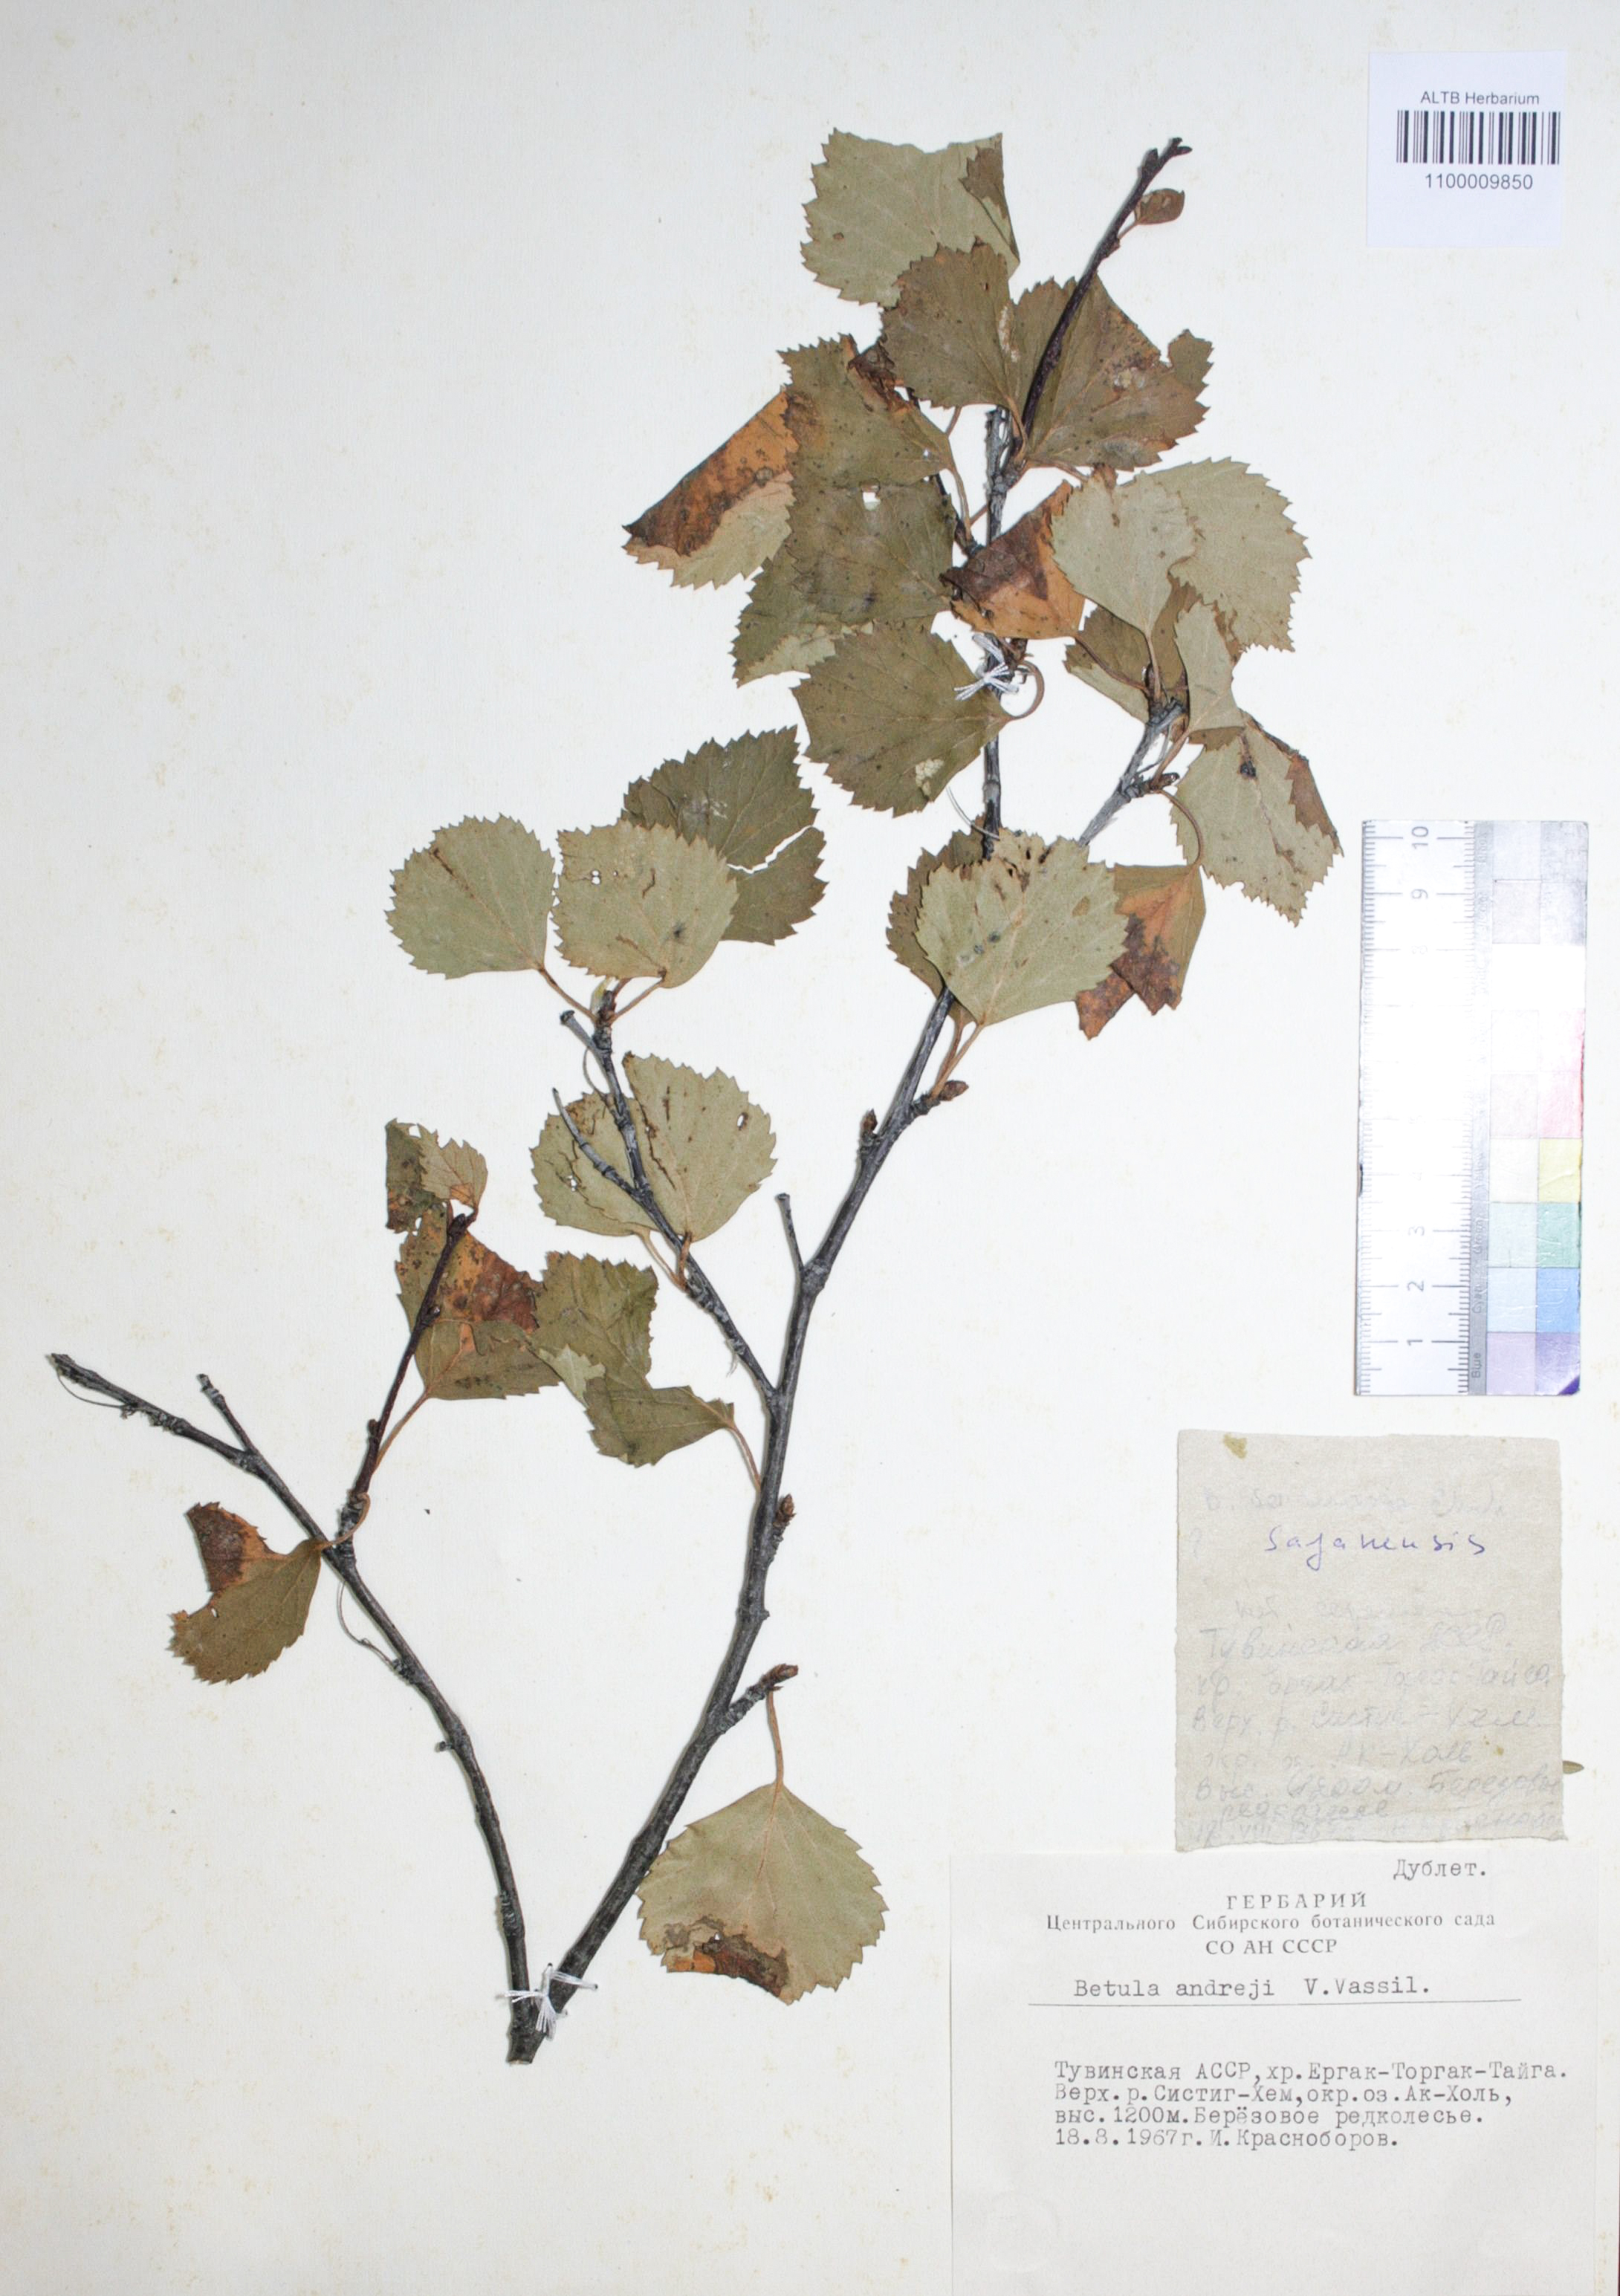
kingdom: Plantae
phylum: Tracheophyta
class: Magnoliopsida
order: Fagales
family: Betulaceae
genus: Betula
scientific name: Betula pubescens
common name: Downy birch
